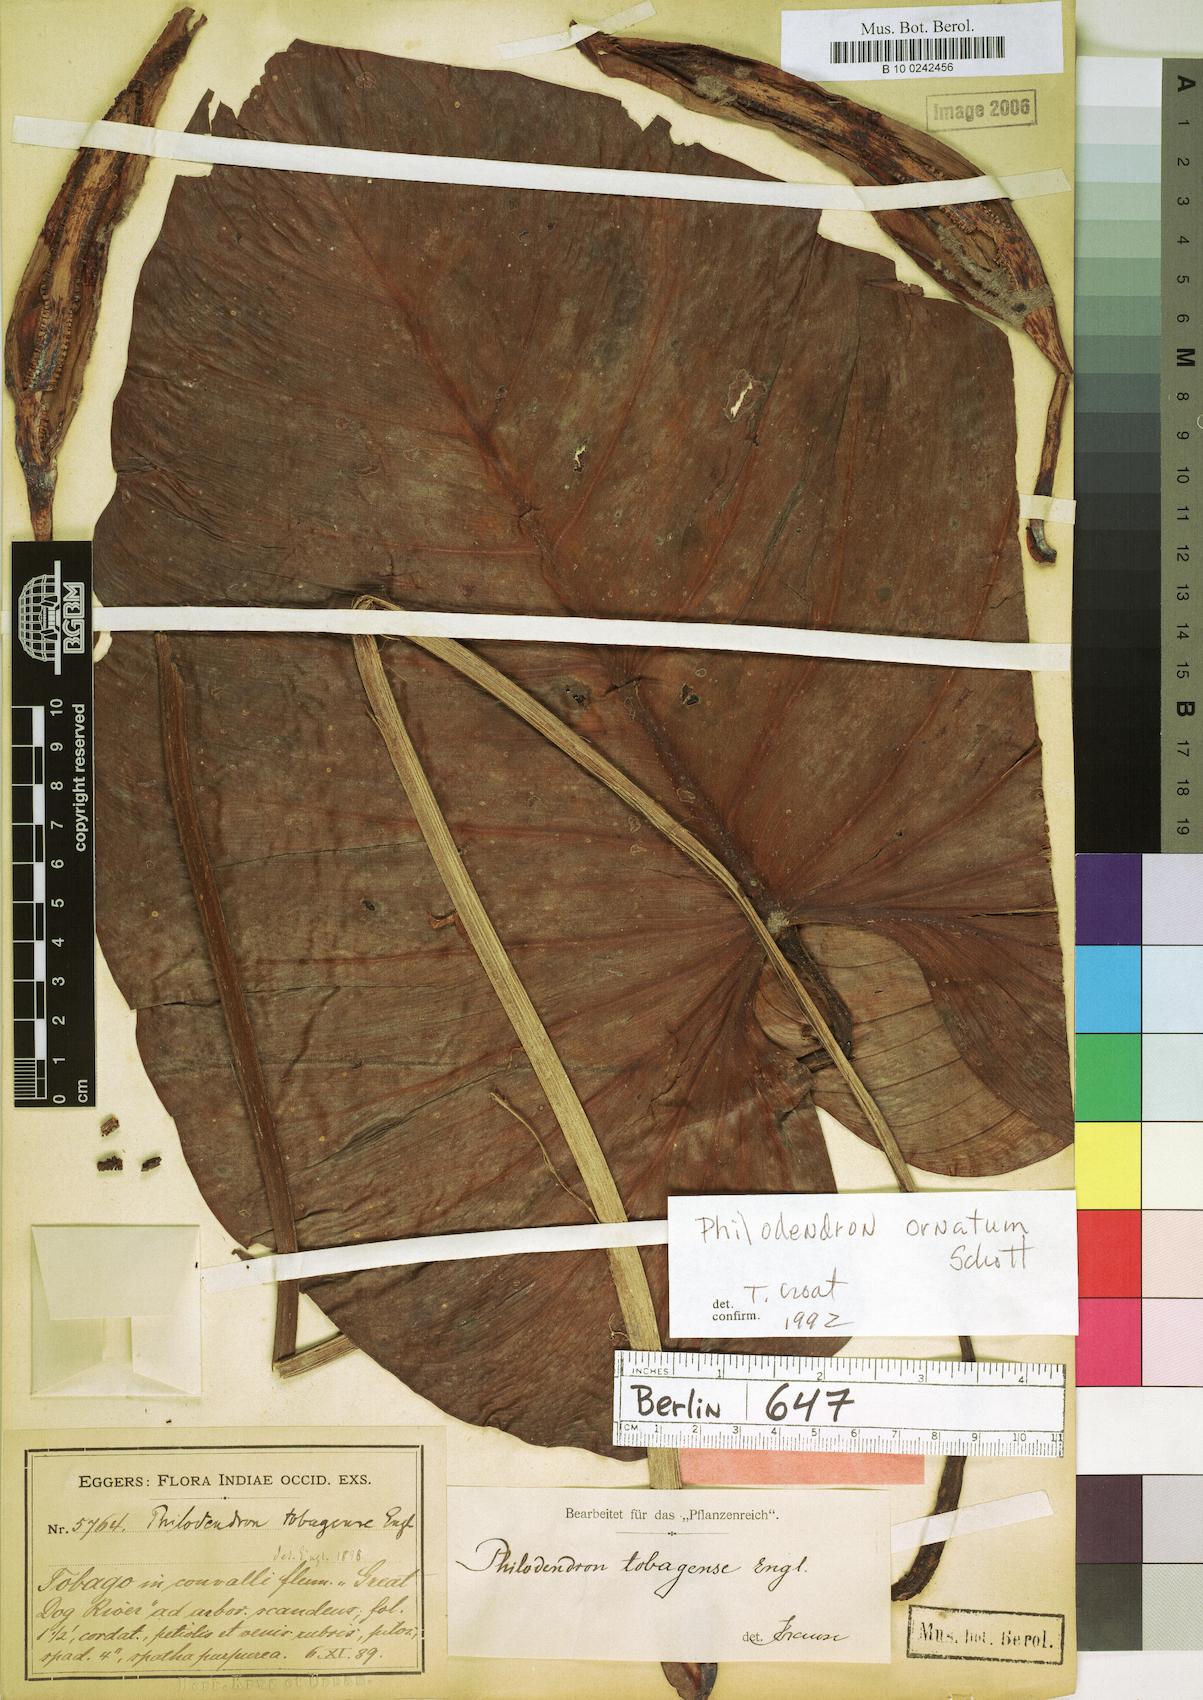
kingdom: Plantae
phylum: Tracheophyta
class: Liliopsida
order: Alismatales
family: Araceae
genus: Philodendron
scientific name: Philodendron ornatum
